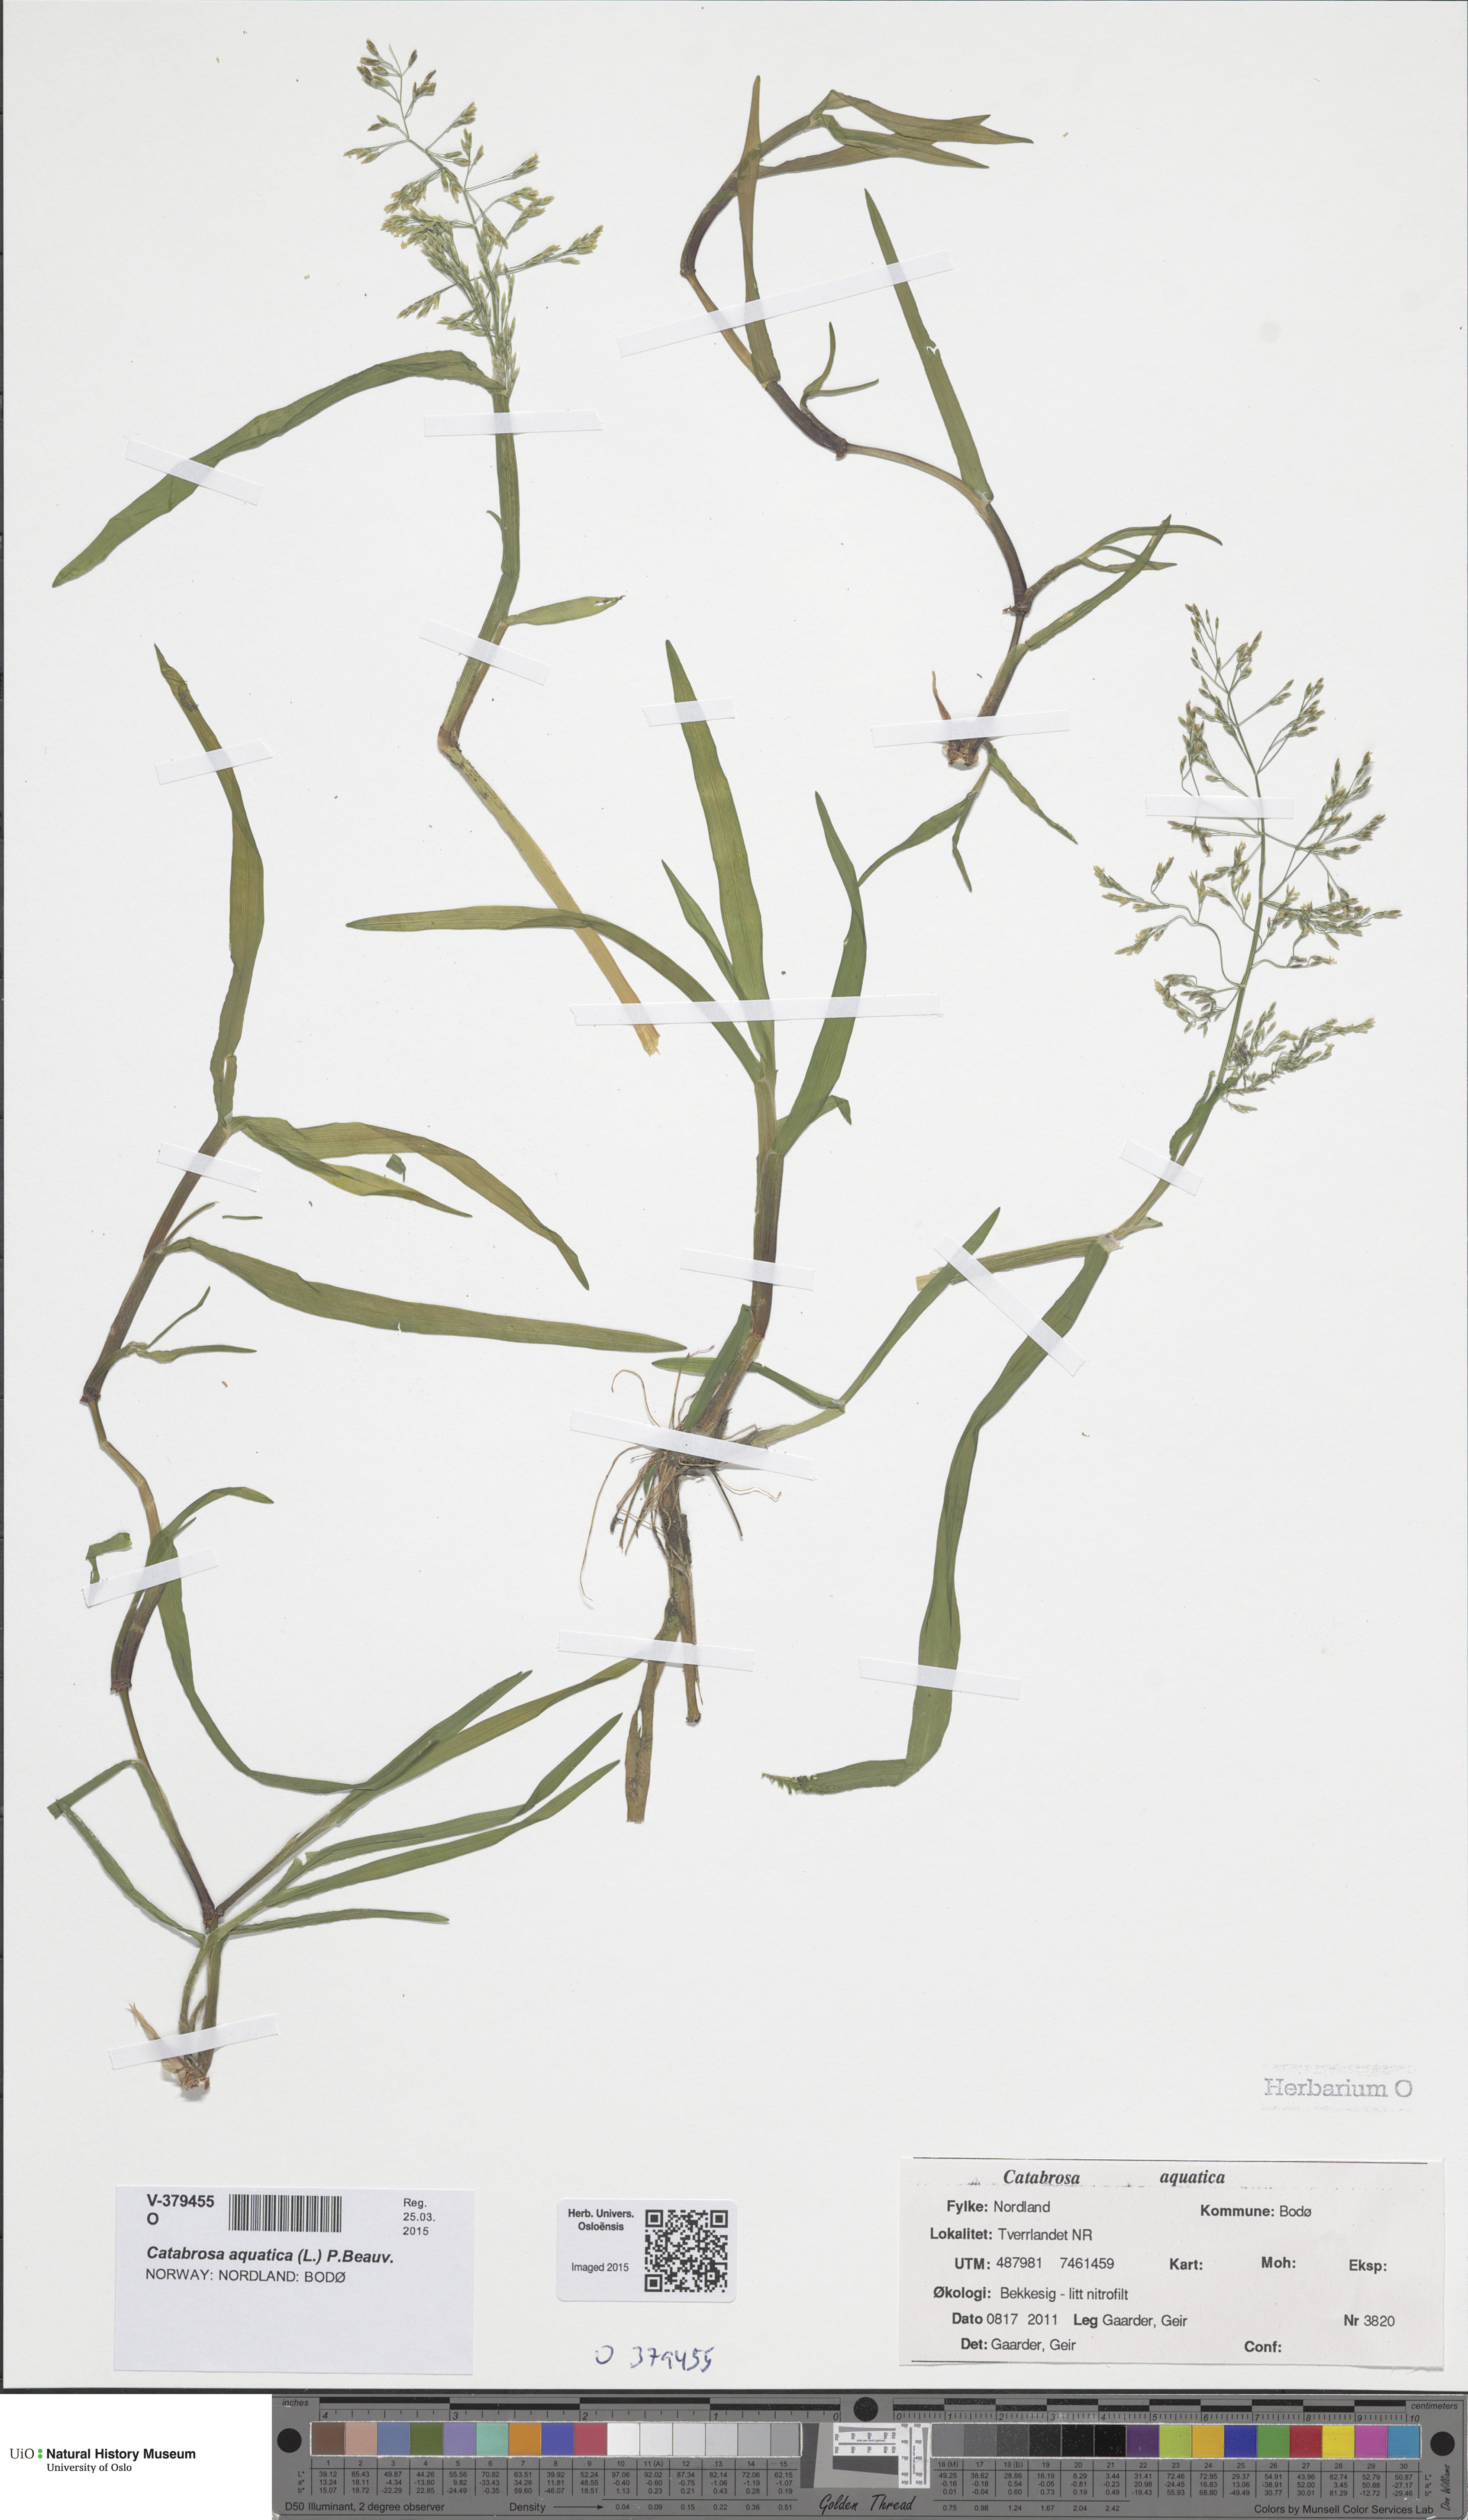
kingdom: Plantae
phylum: Tracheophyta
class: Liliopsida
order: Poales
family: Poaceae
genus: Catabrosa
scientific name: Catabrosa aquatica
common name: Whorl-grass
